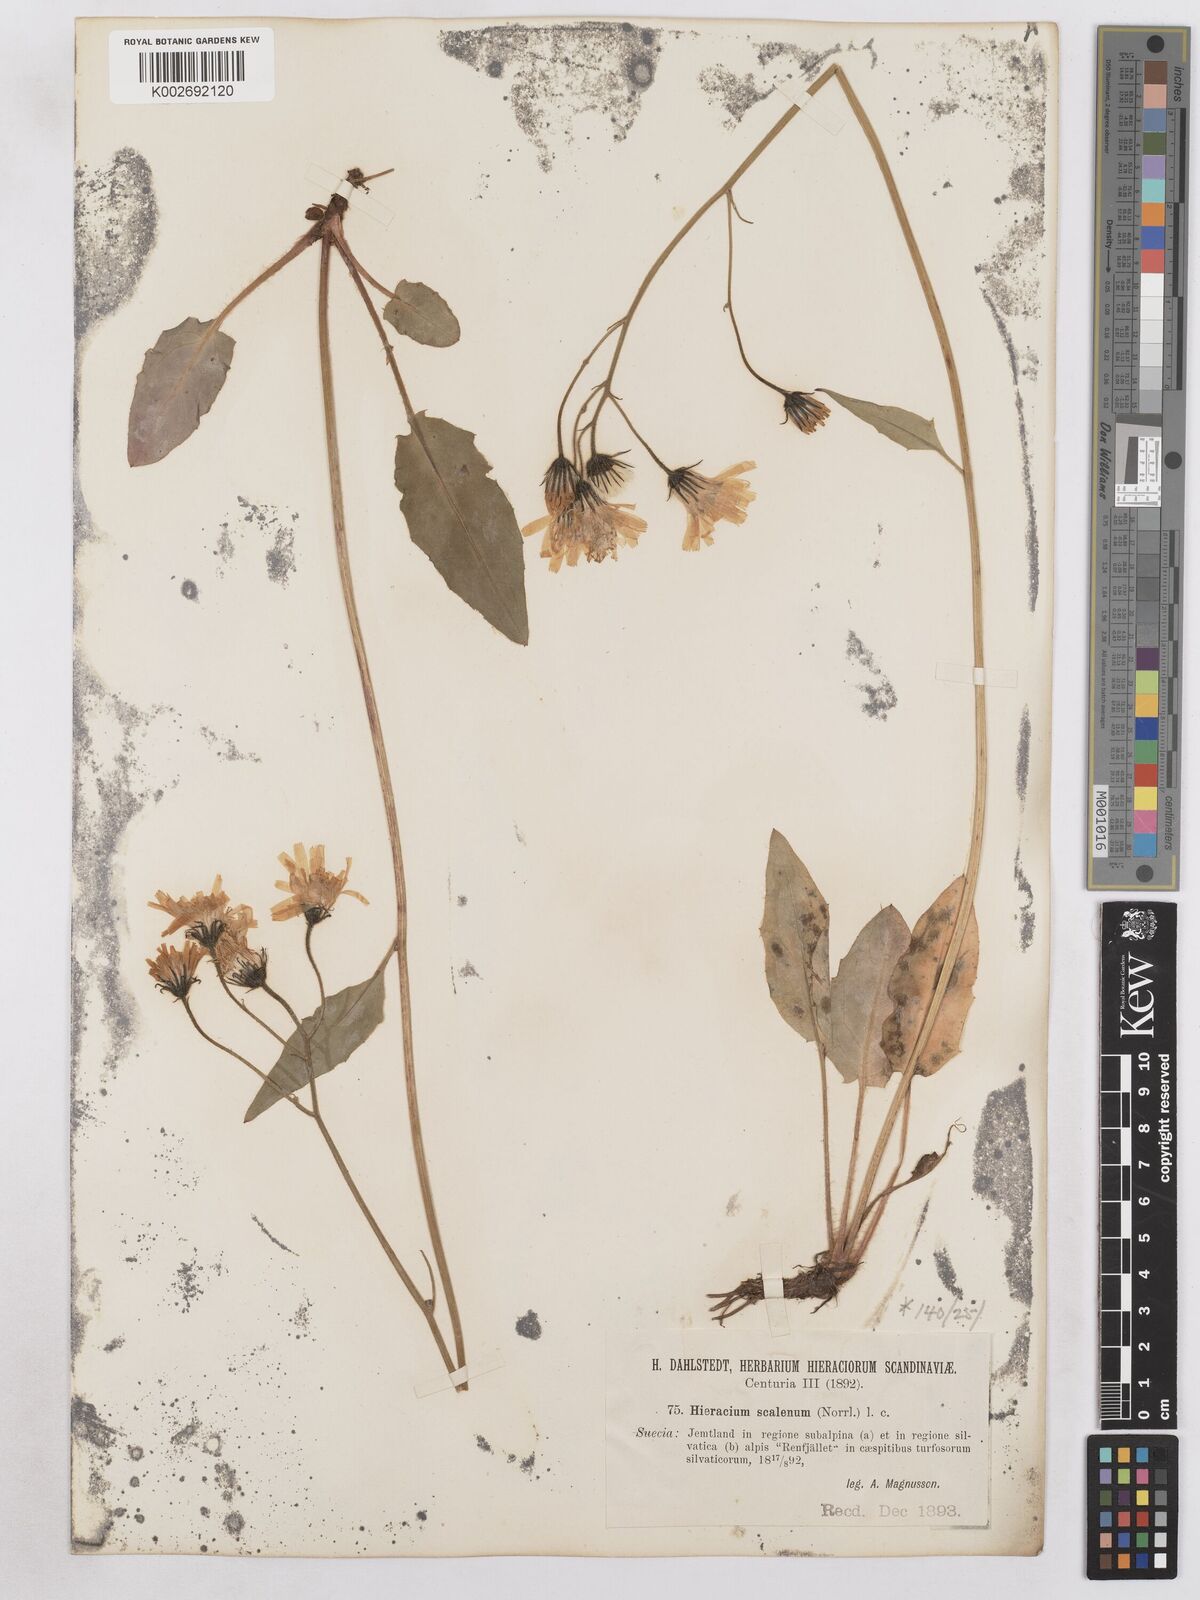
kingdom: Plantae
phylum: Tracheophyta
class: Magnoliopsida
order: Asterales
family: Asteraceae
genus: Hieracium
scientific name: Hieracium fuscocinereum
